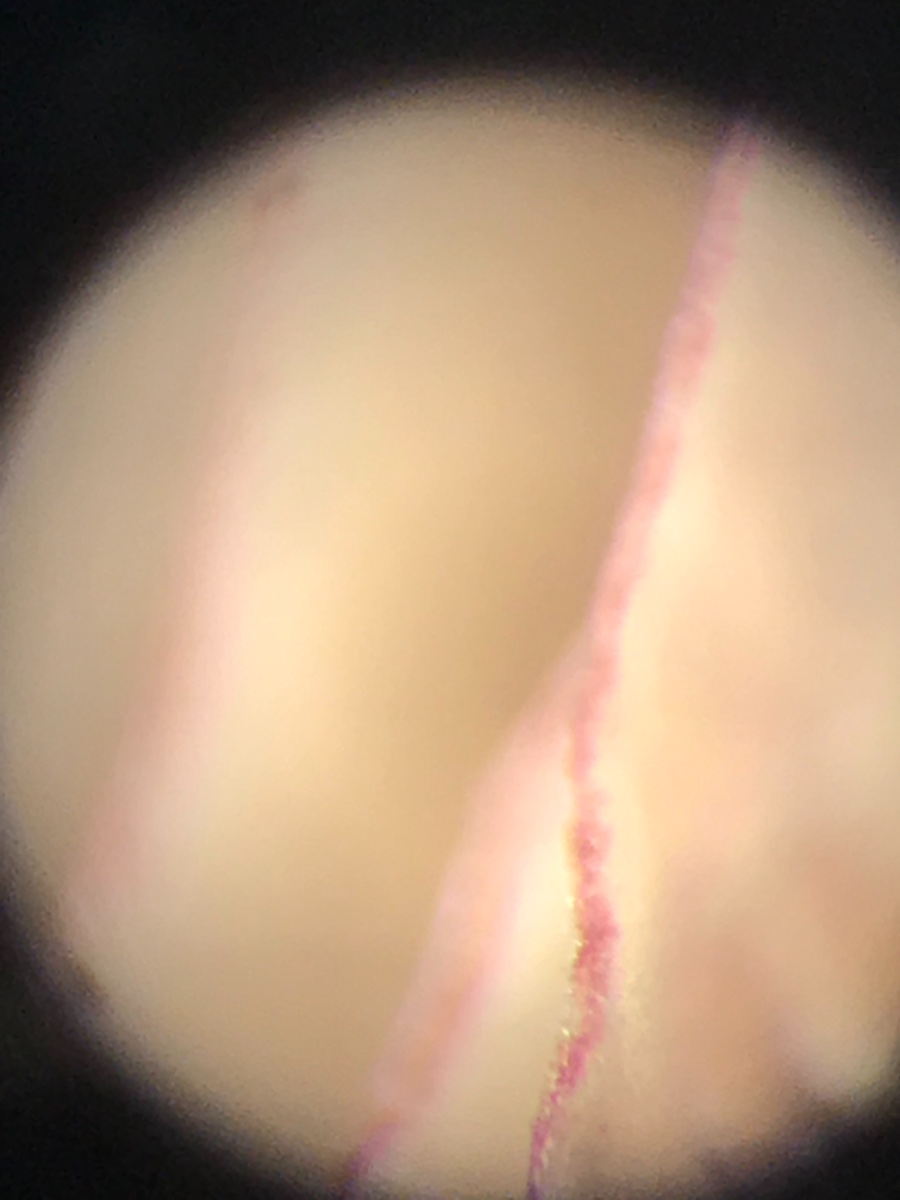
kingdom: Fungi
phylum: Basidiomycota
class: Agaricomycetes
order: Agaricales
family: Mycenaceae
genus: Mycena
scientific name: Mycena olivaceomarginata
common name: brunægget huesvamp
